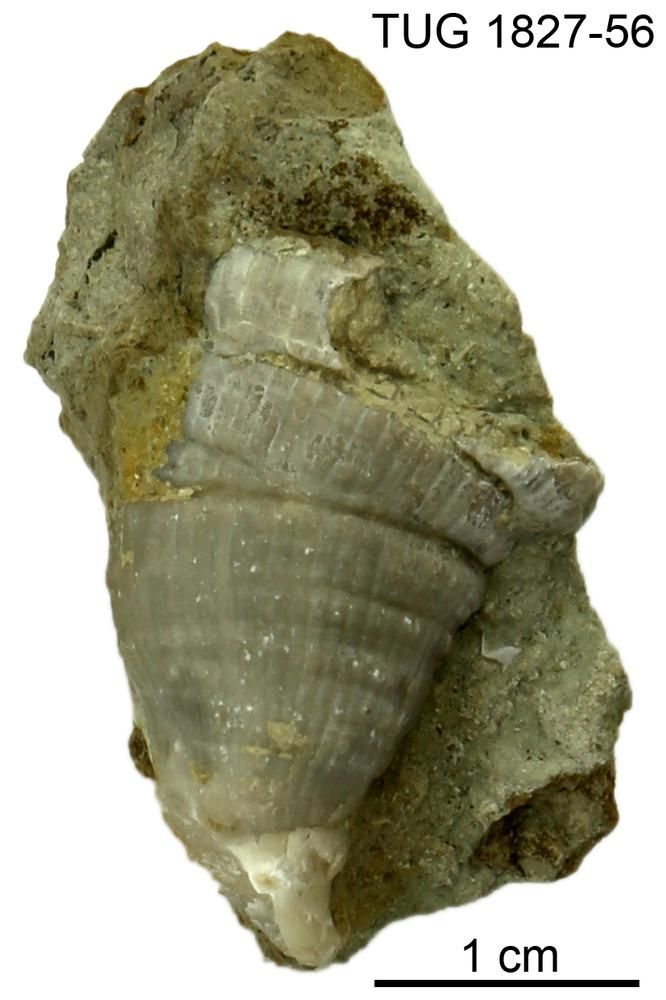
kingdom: Animalia
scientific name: Animalia
